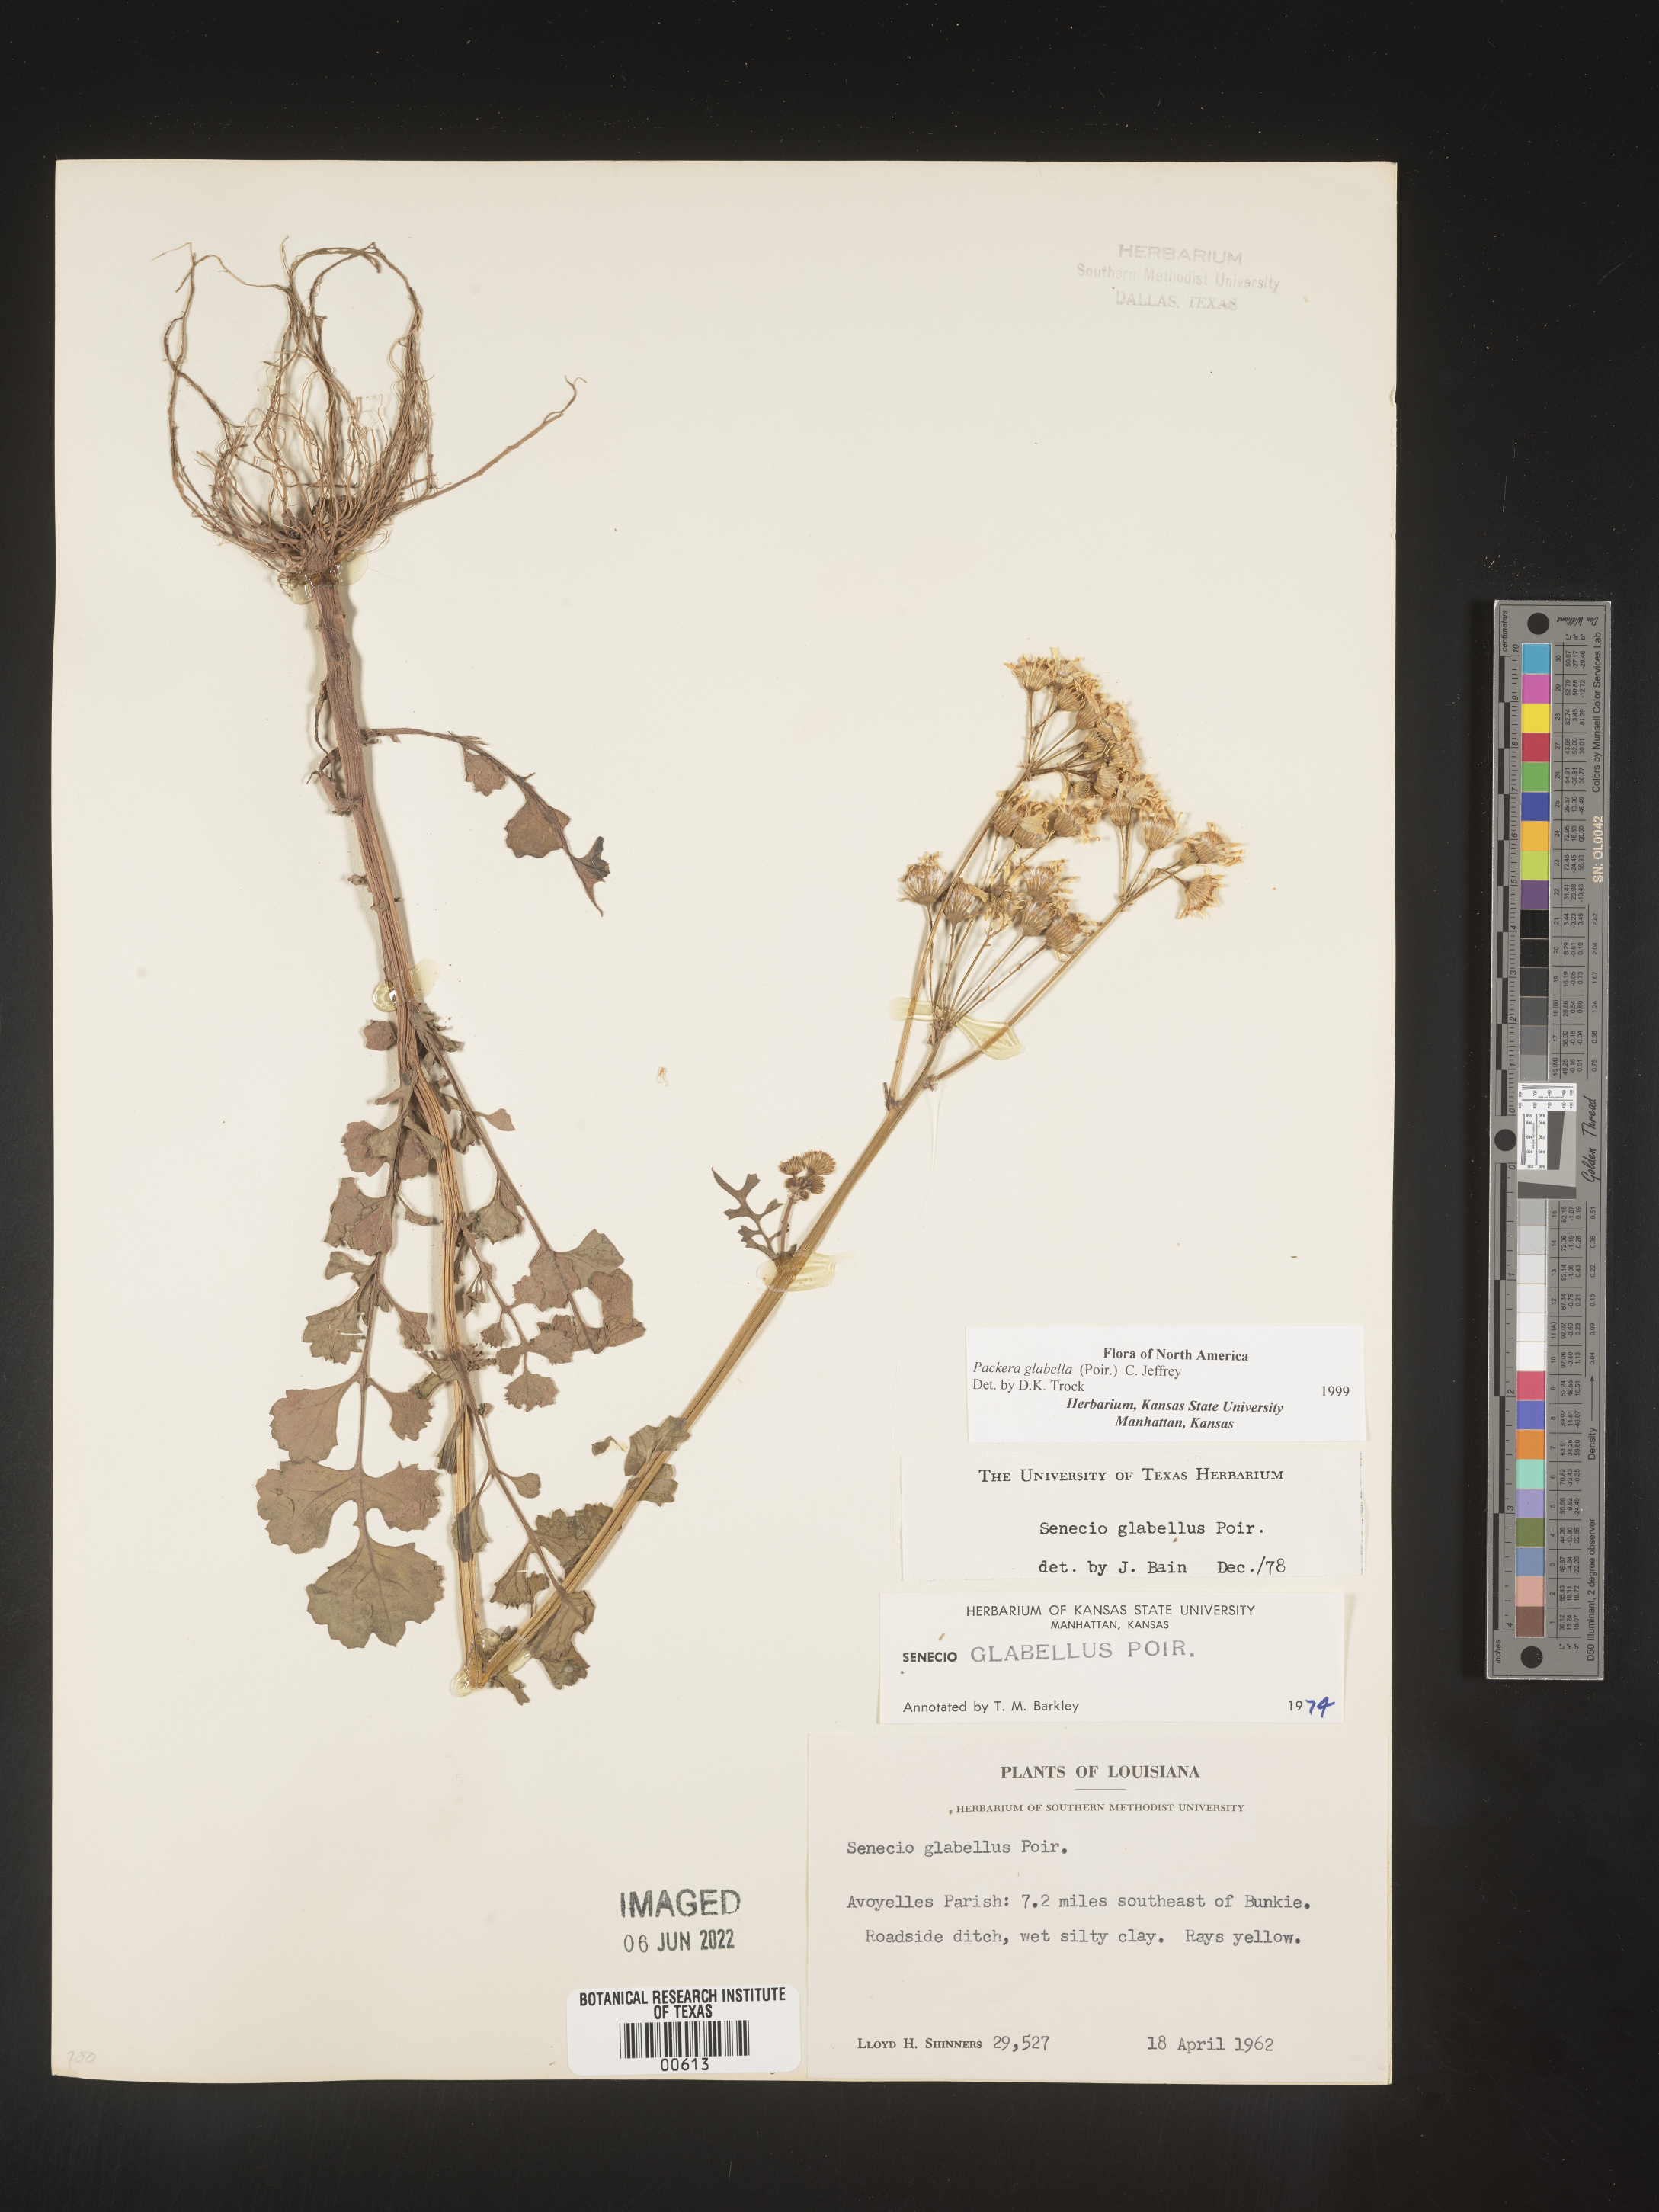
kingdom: Plantae
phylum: Tracheophyta
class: Magnoliopsida
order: Asterales
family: Asteraceae
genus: Packera
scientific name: Packera glabella
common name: Butterweed
